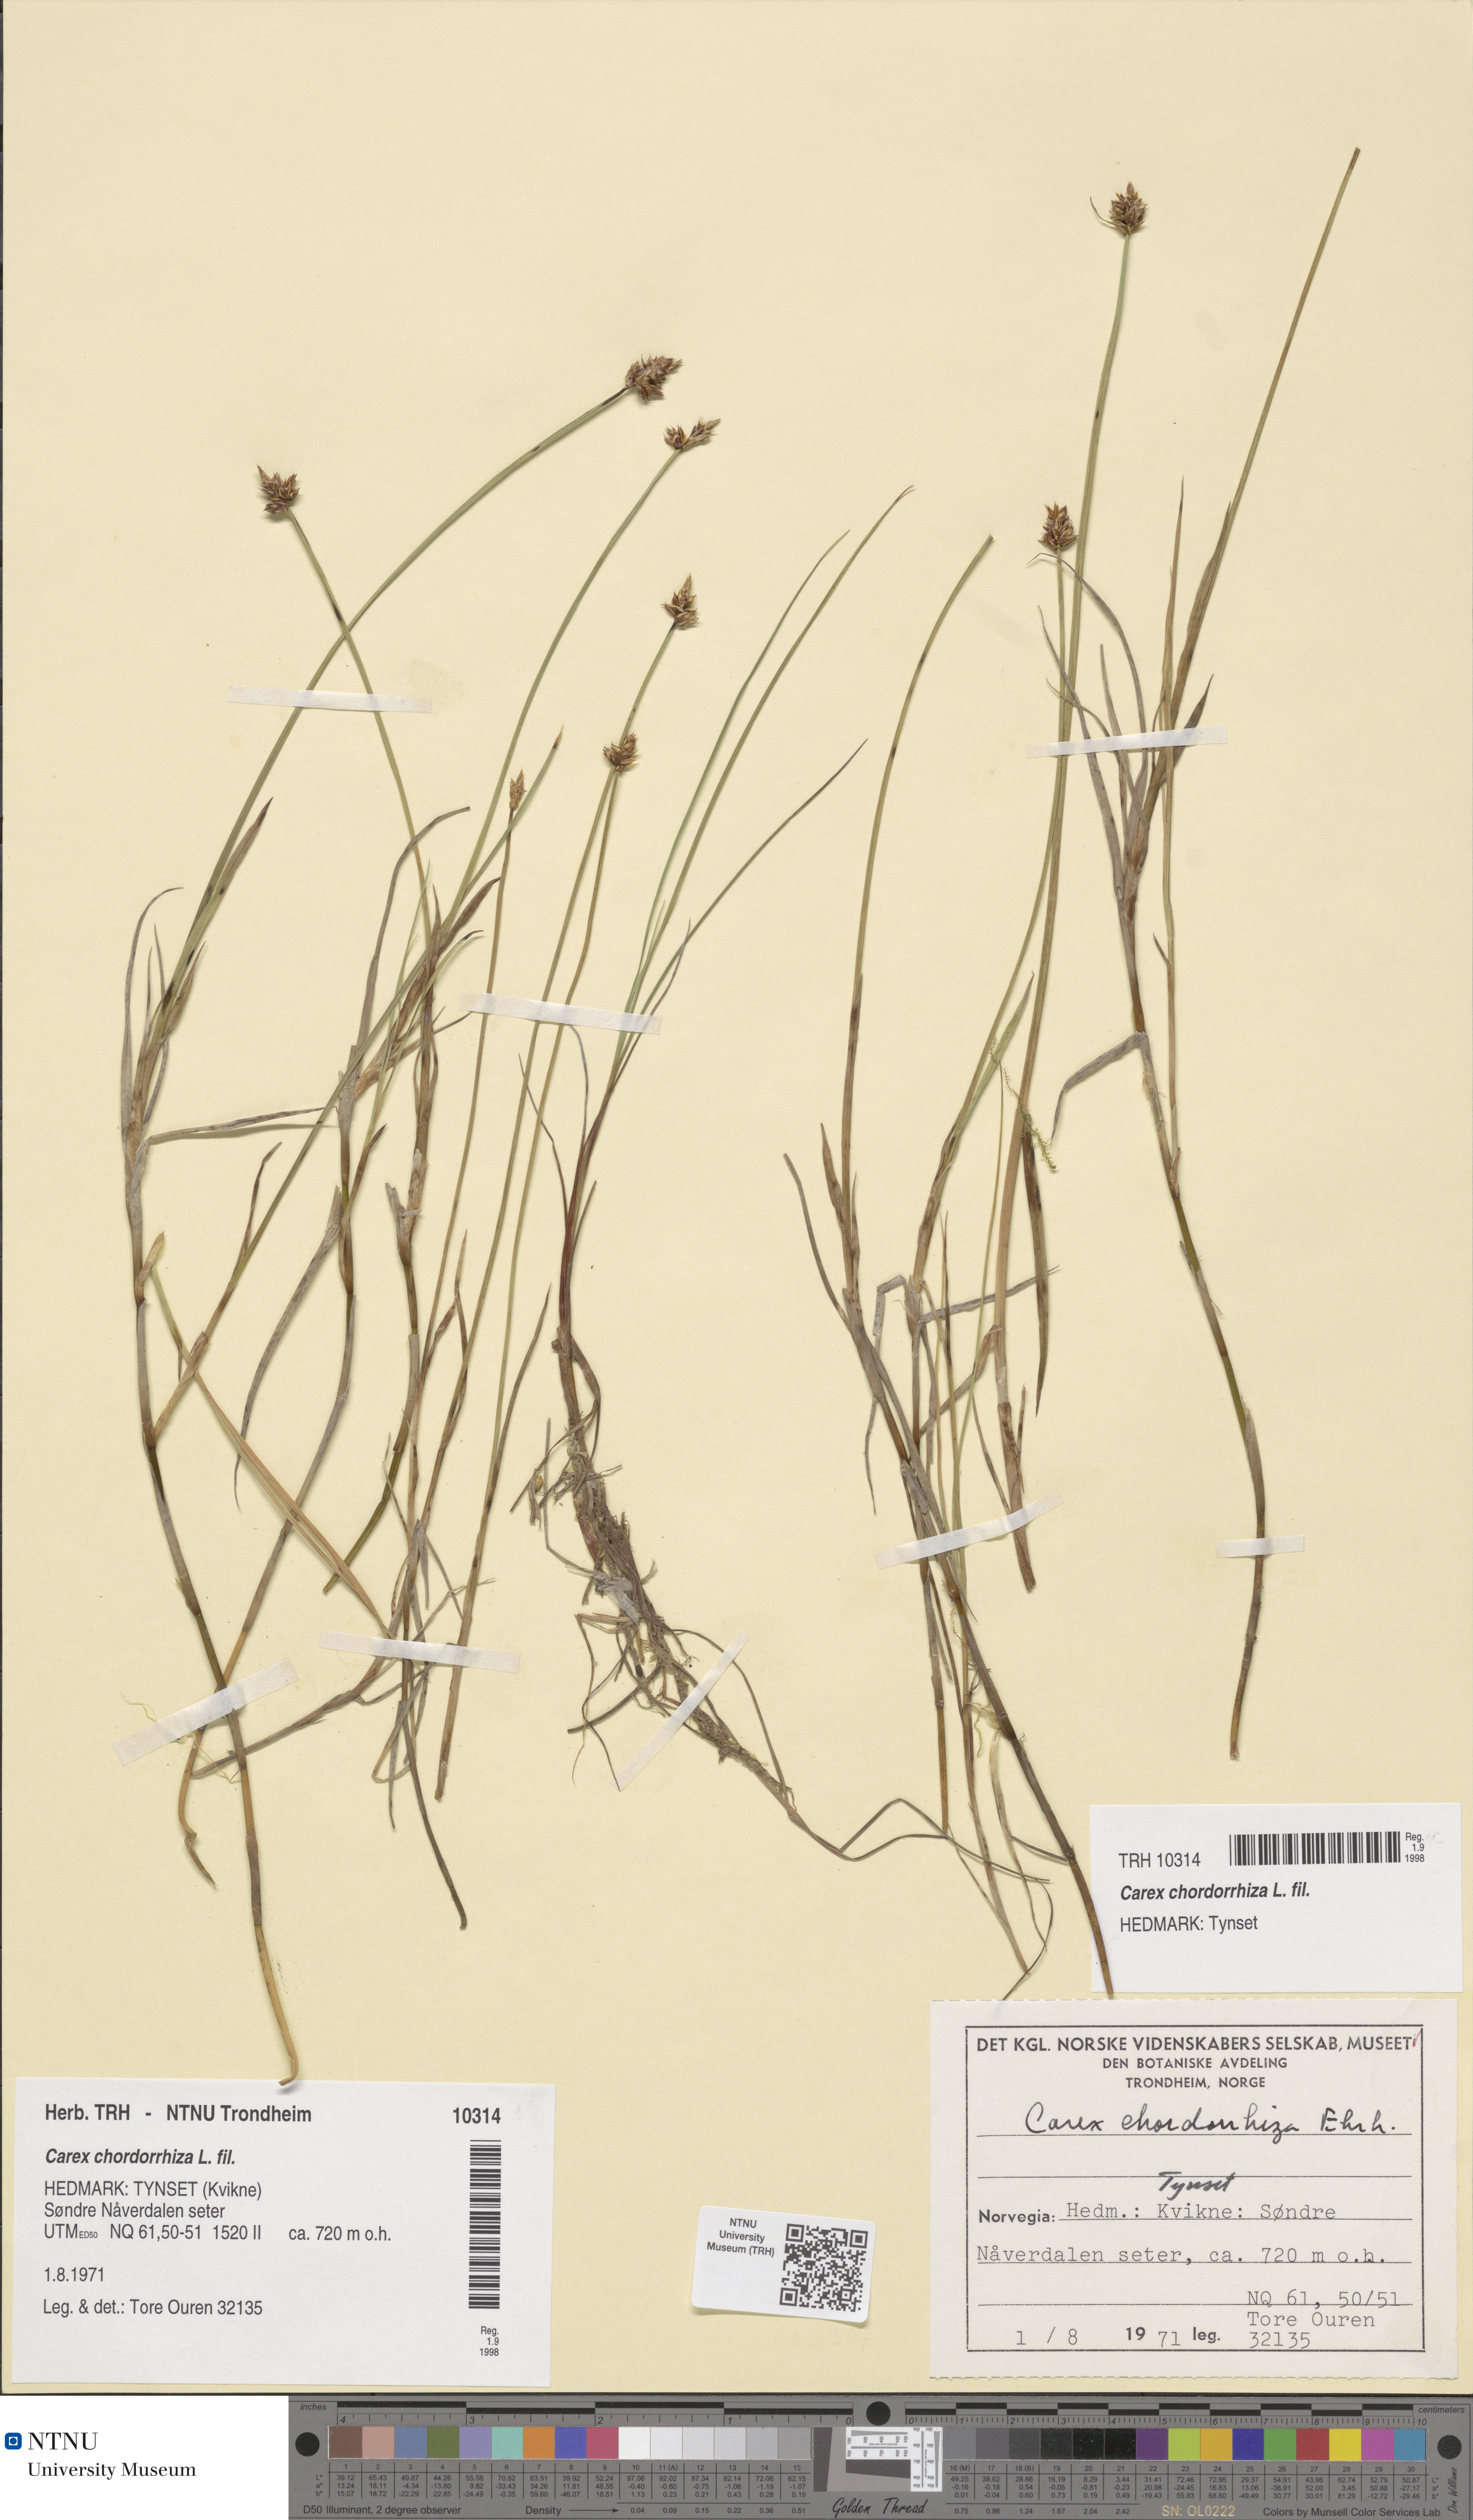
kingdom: Plantae
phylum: Tracheophyta
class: Liliopsida
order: Poales
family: Cyperaceae
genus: Carex
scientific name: Carex chordorrhiza
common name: String sedge
